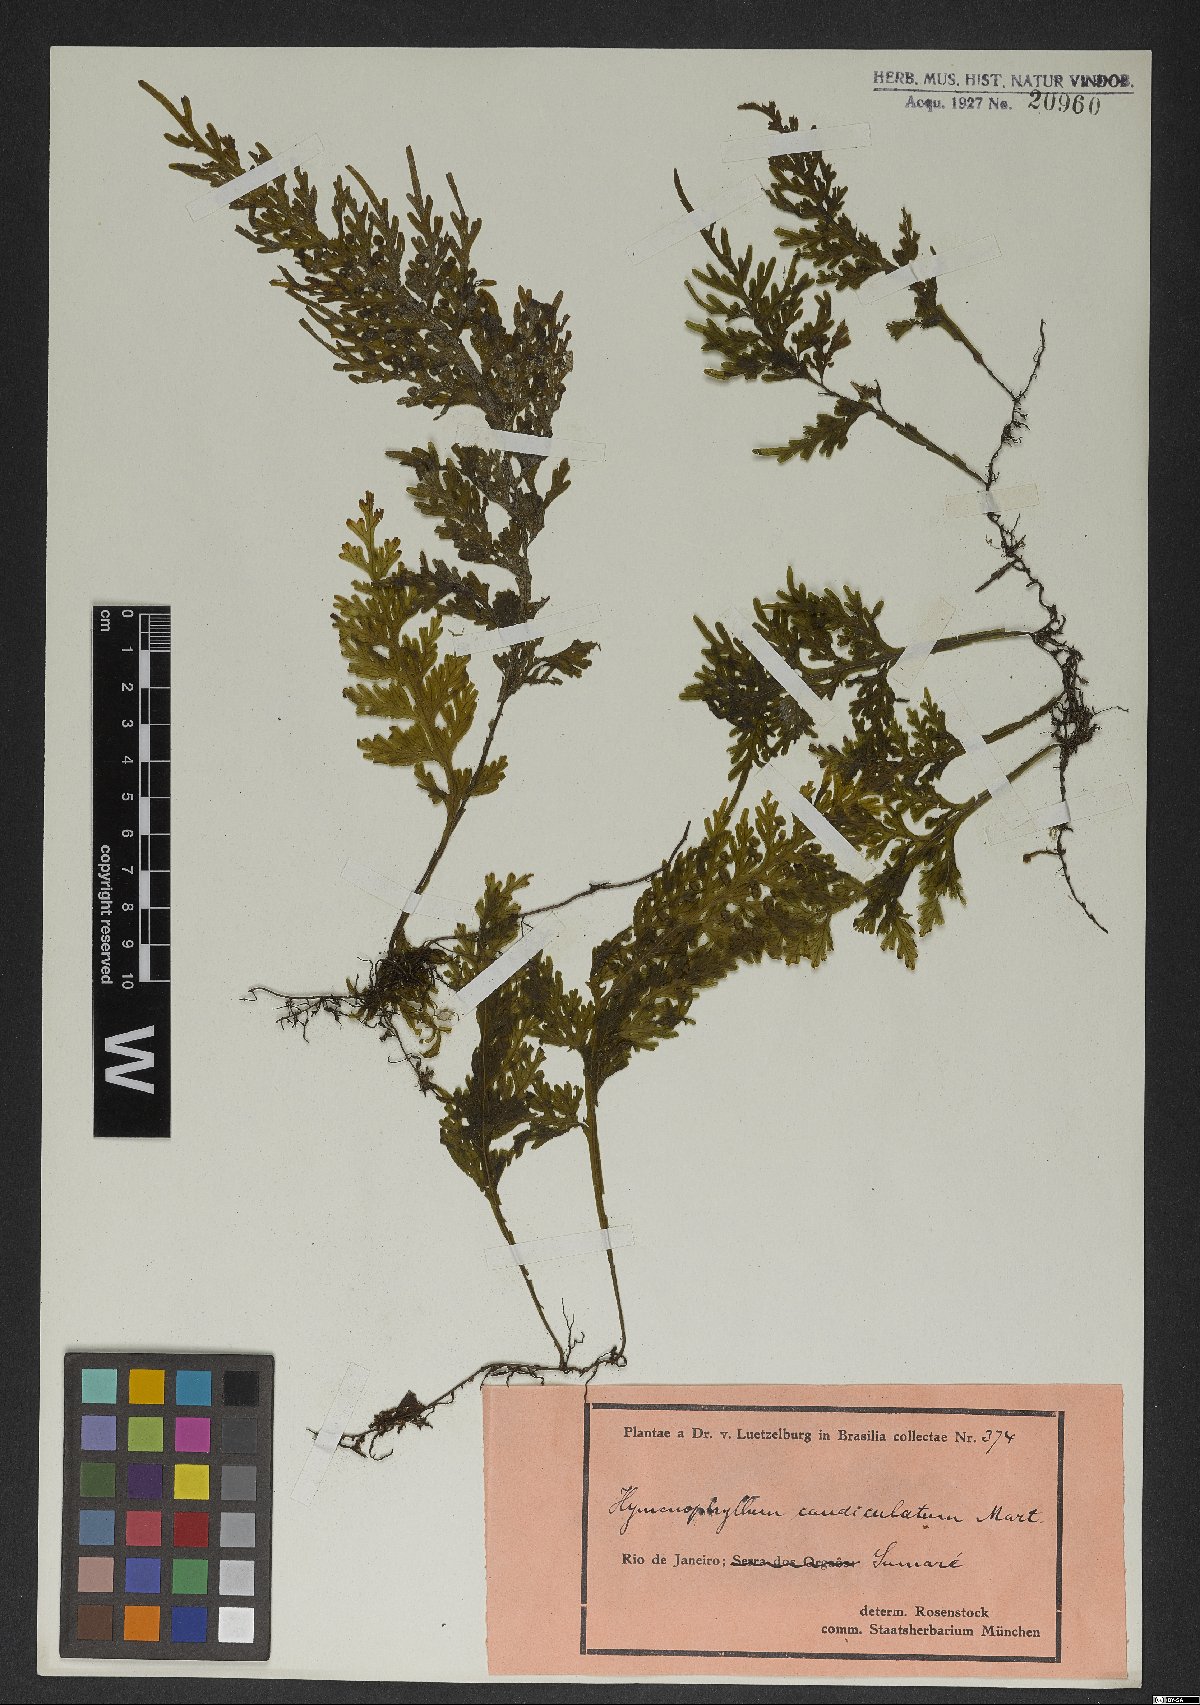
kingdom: Plantae
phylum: Tracheophyta
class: Polypodiopsida
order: Hymenophyllales
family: Hymenophyllaceae
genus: Hymenophyllum
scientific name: Hymenophyllum caudiculatum
